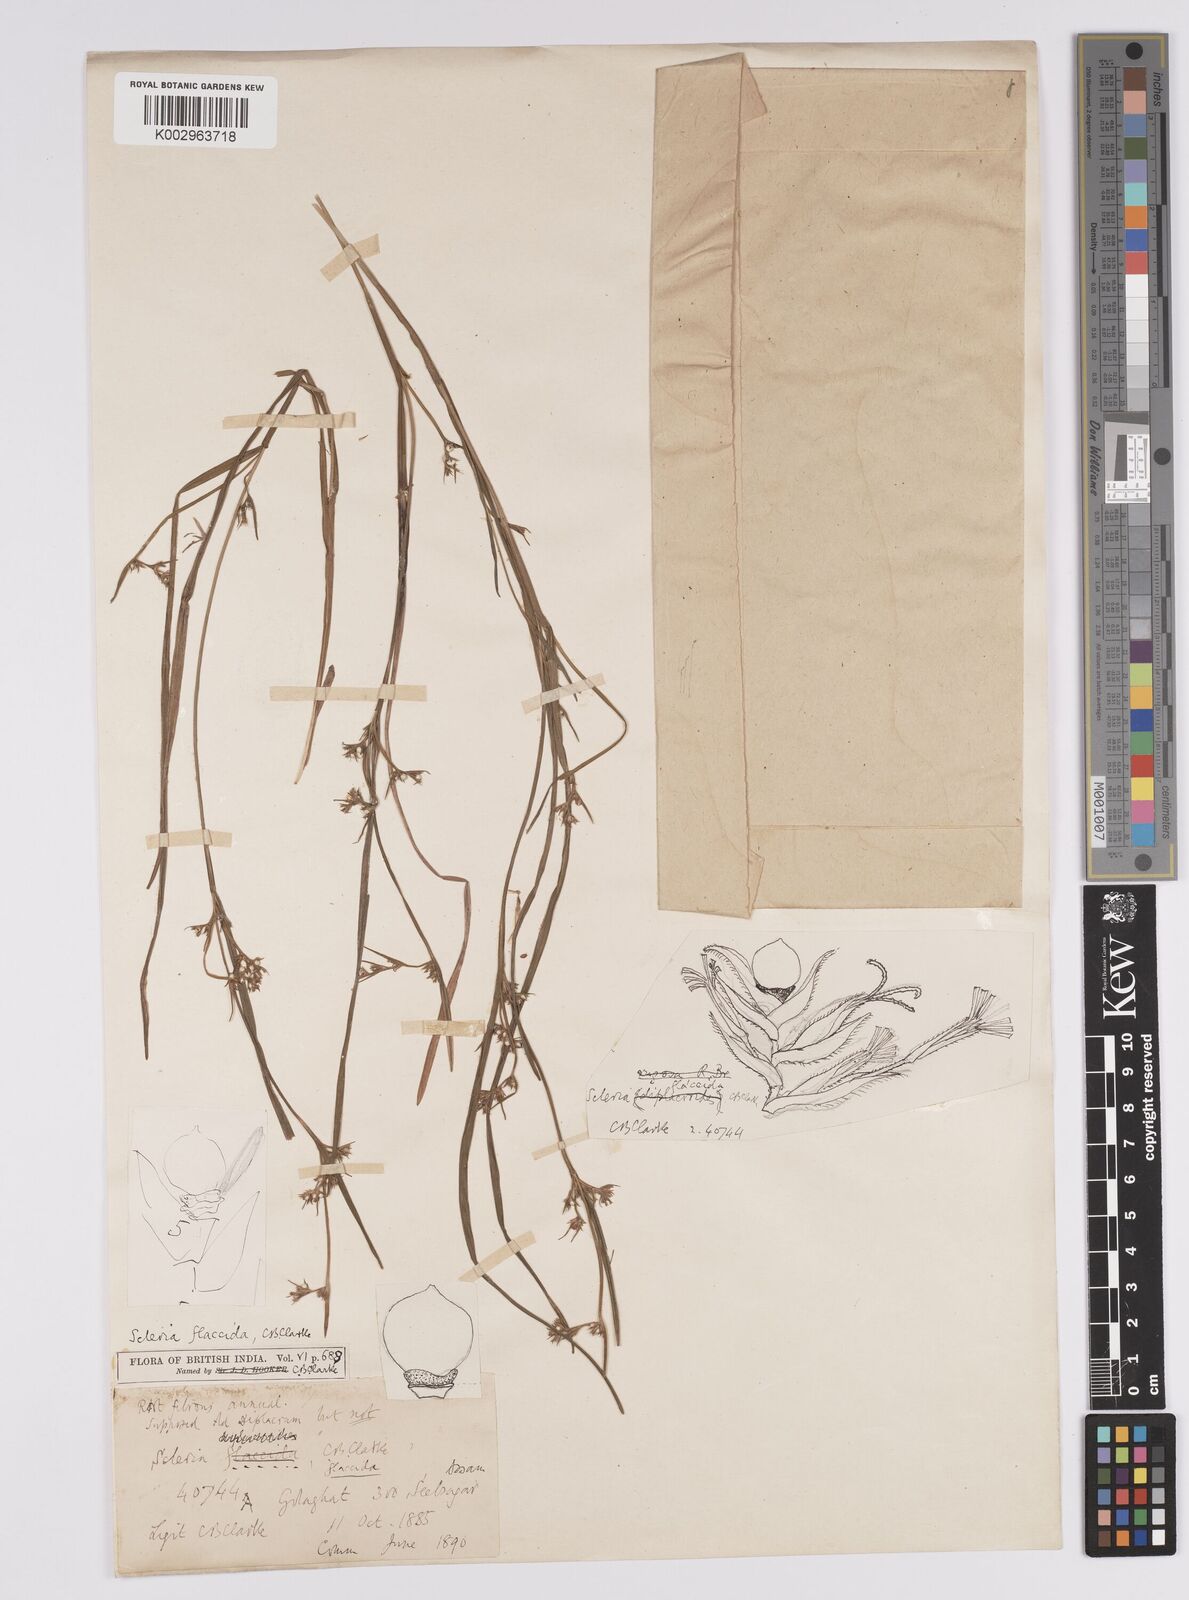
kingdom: Plantae
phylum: Tracheophyta
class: Liliopsida
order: Poales
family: Cyperaceae
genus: Scleria
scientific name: Scleria rugosa
